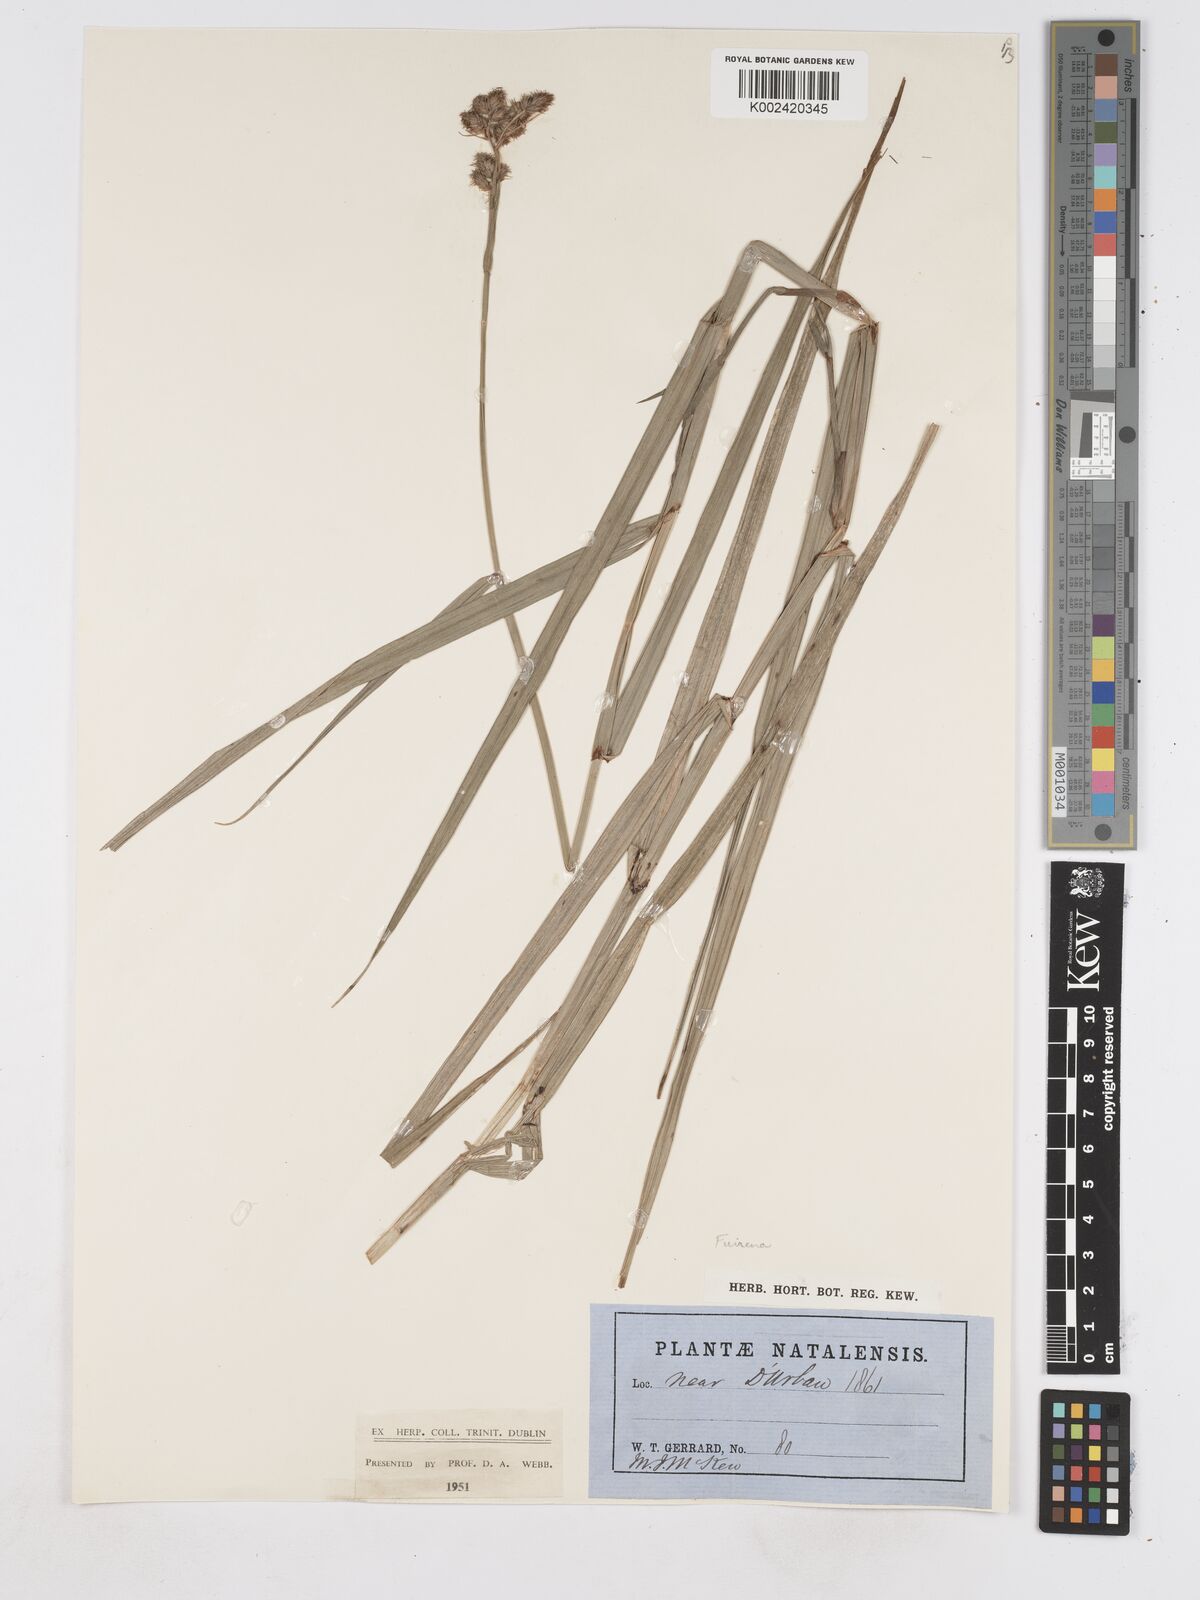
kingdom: Plantae
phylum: Tracheophyta
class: Liliopsida
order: Poales
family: Cyperaceae
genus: Fuirena
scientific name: Fuirena
